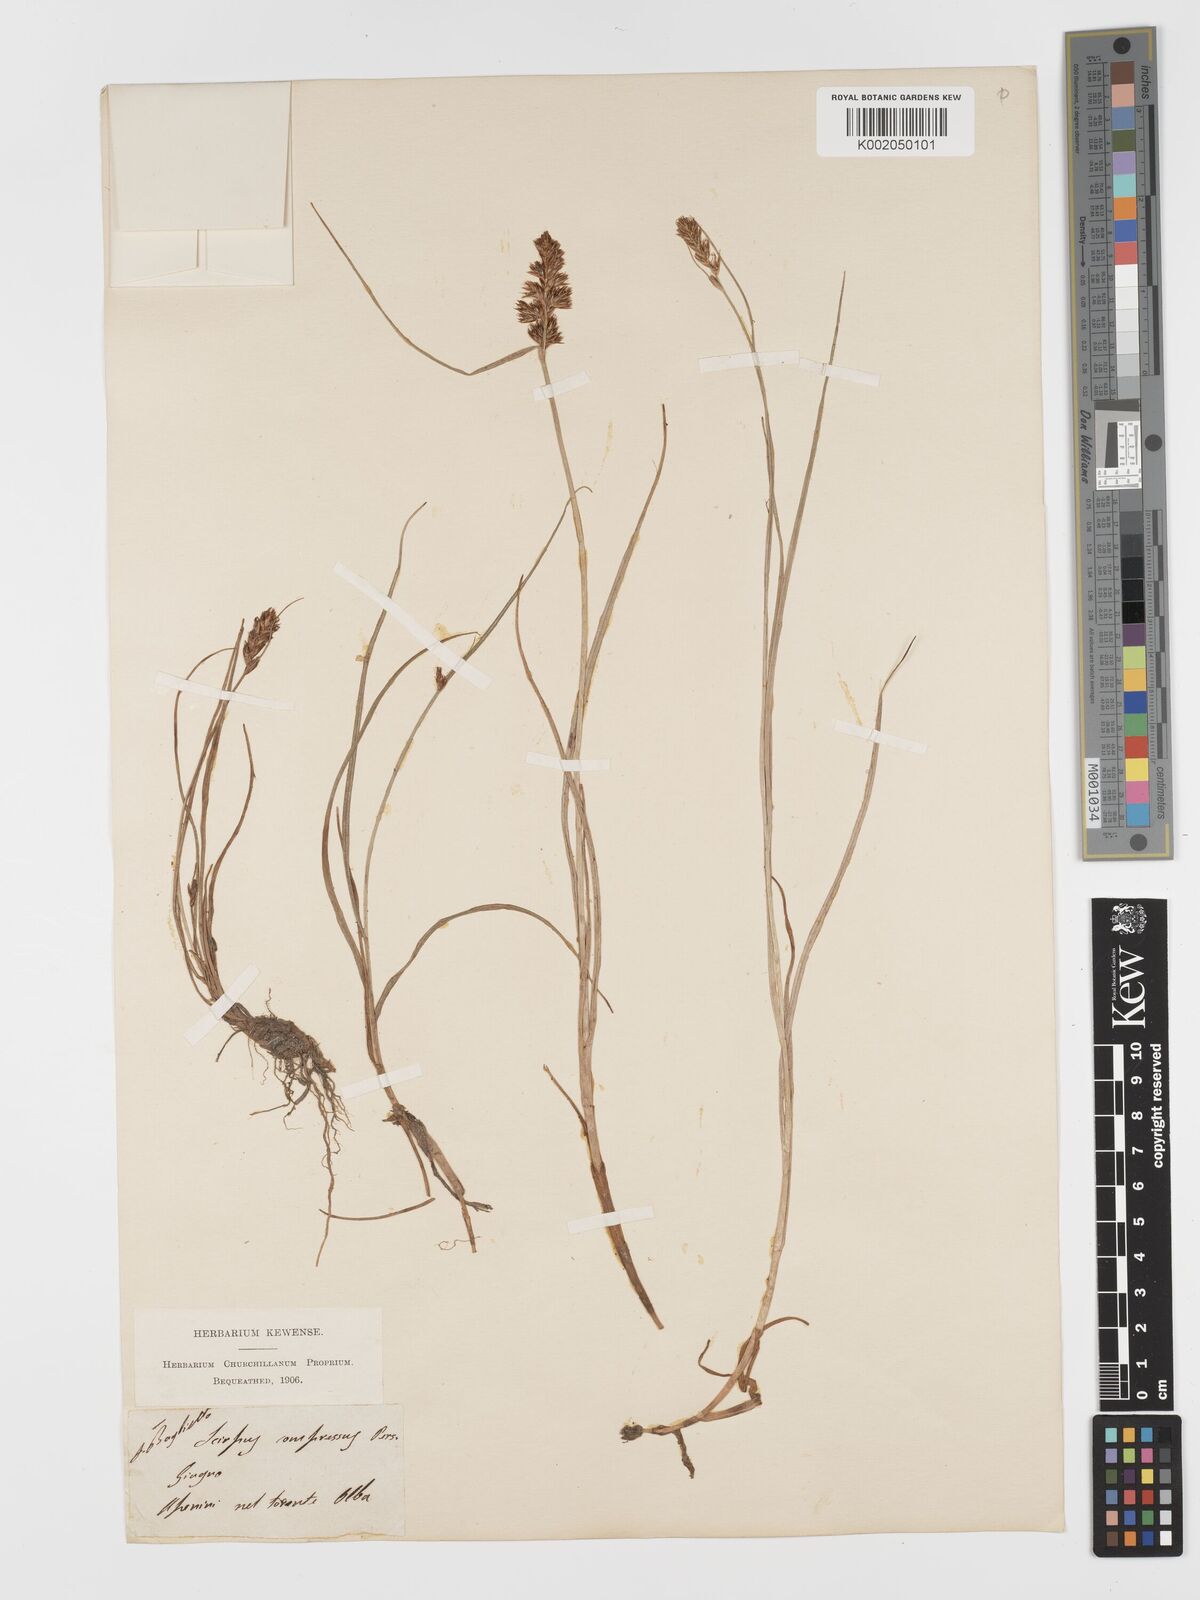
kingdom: Plantae
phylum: Tracheophyta
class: Liliopsida
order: Poales
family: Cyperaceae
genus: Blysmus
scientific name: Blysmus compressus
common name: Flat-sedge
